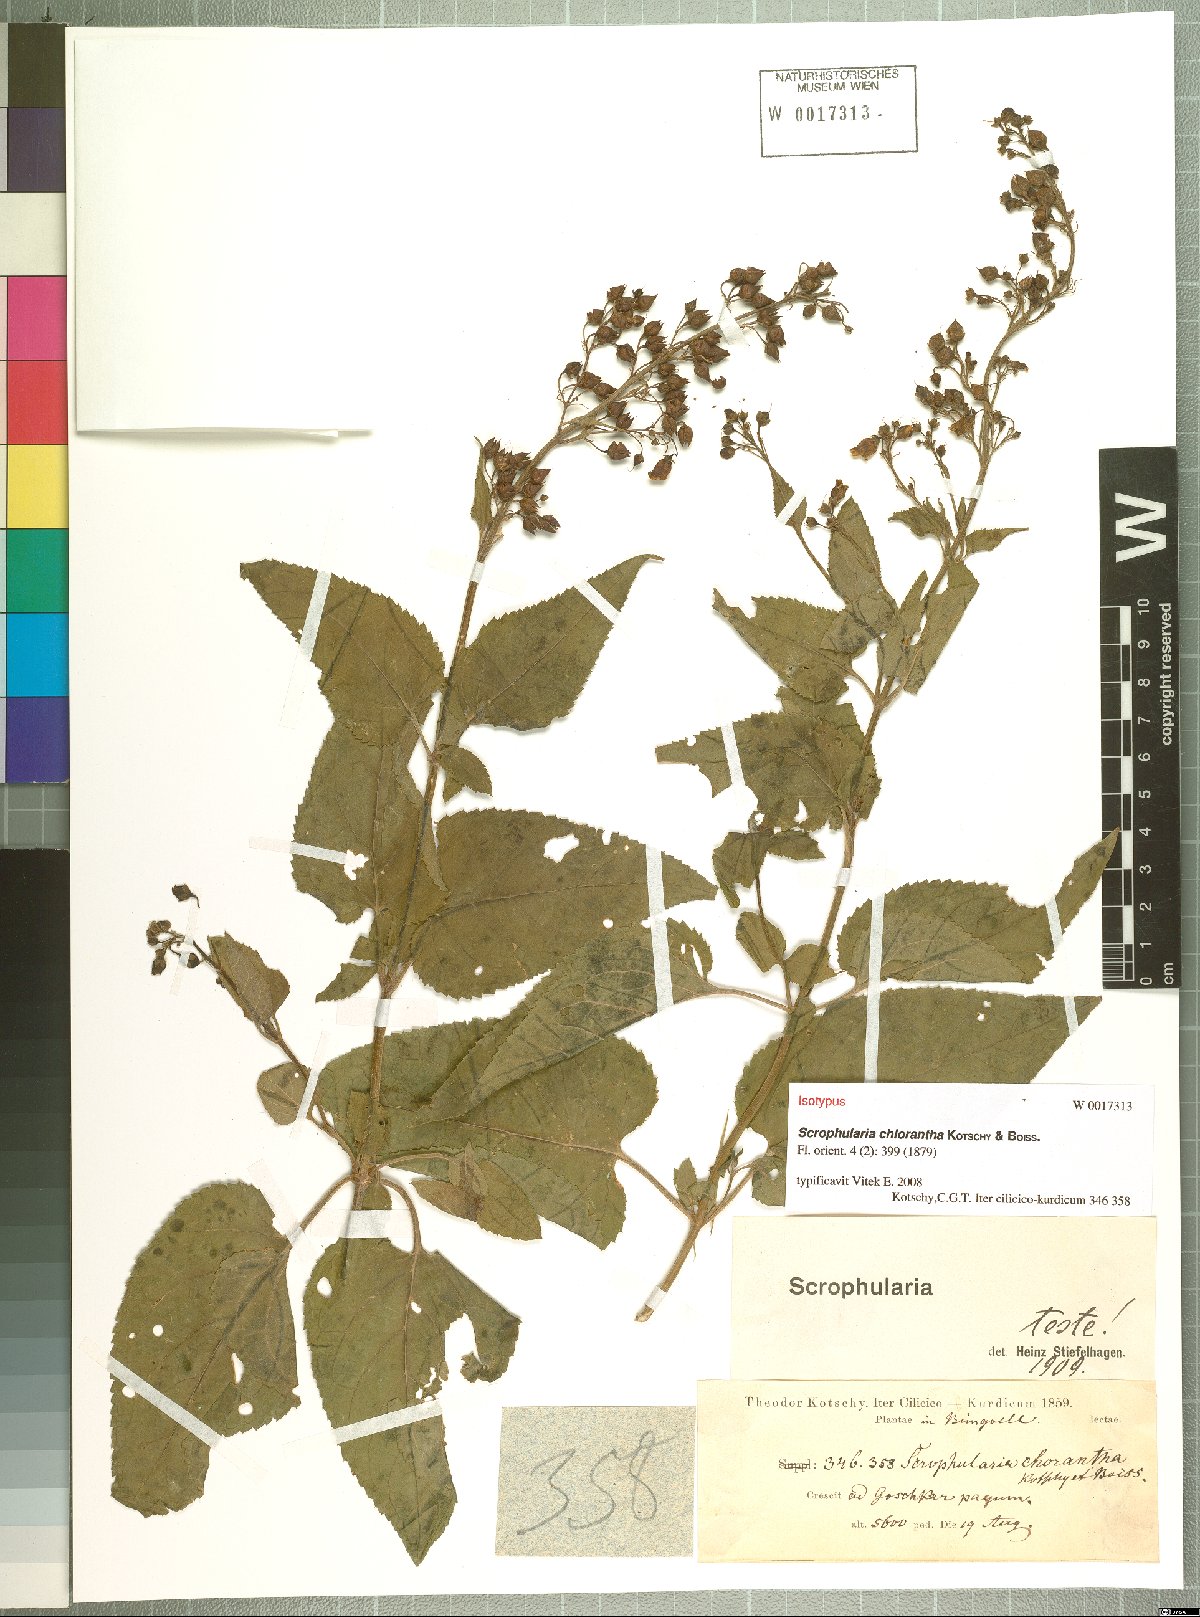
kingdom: Plantae
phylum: Tracheophyta
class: Magnoliopsida
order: Lamiales
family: Scrophulariaceae
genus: Scrophularia
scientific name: Scrophularia chlorantha
